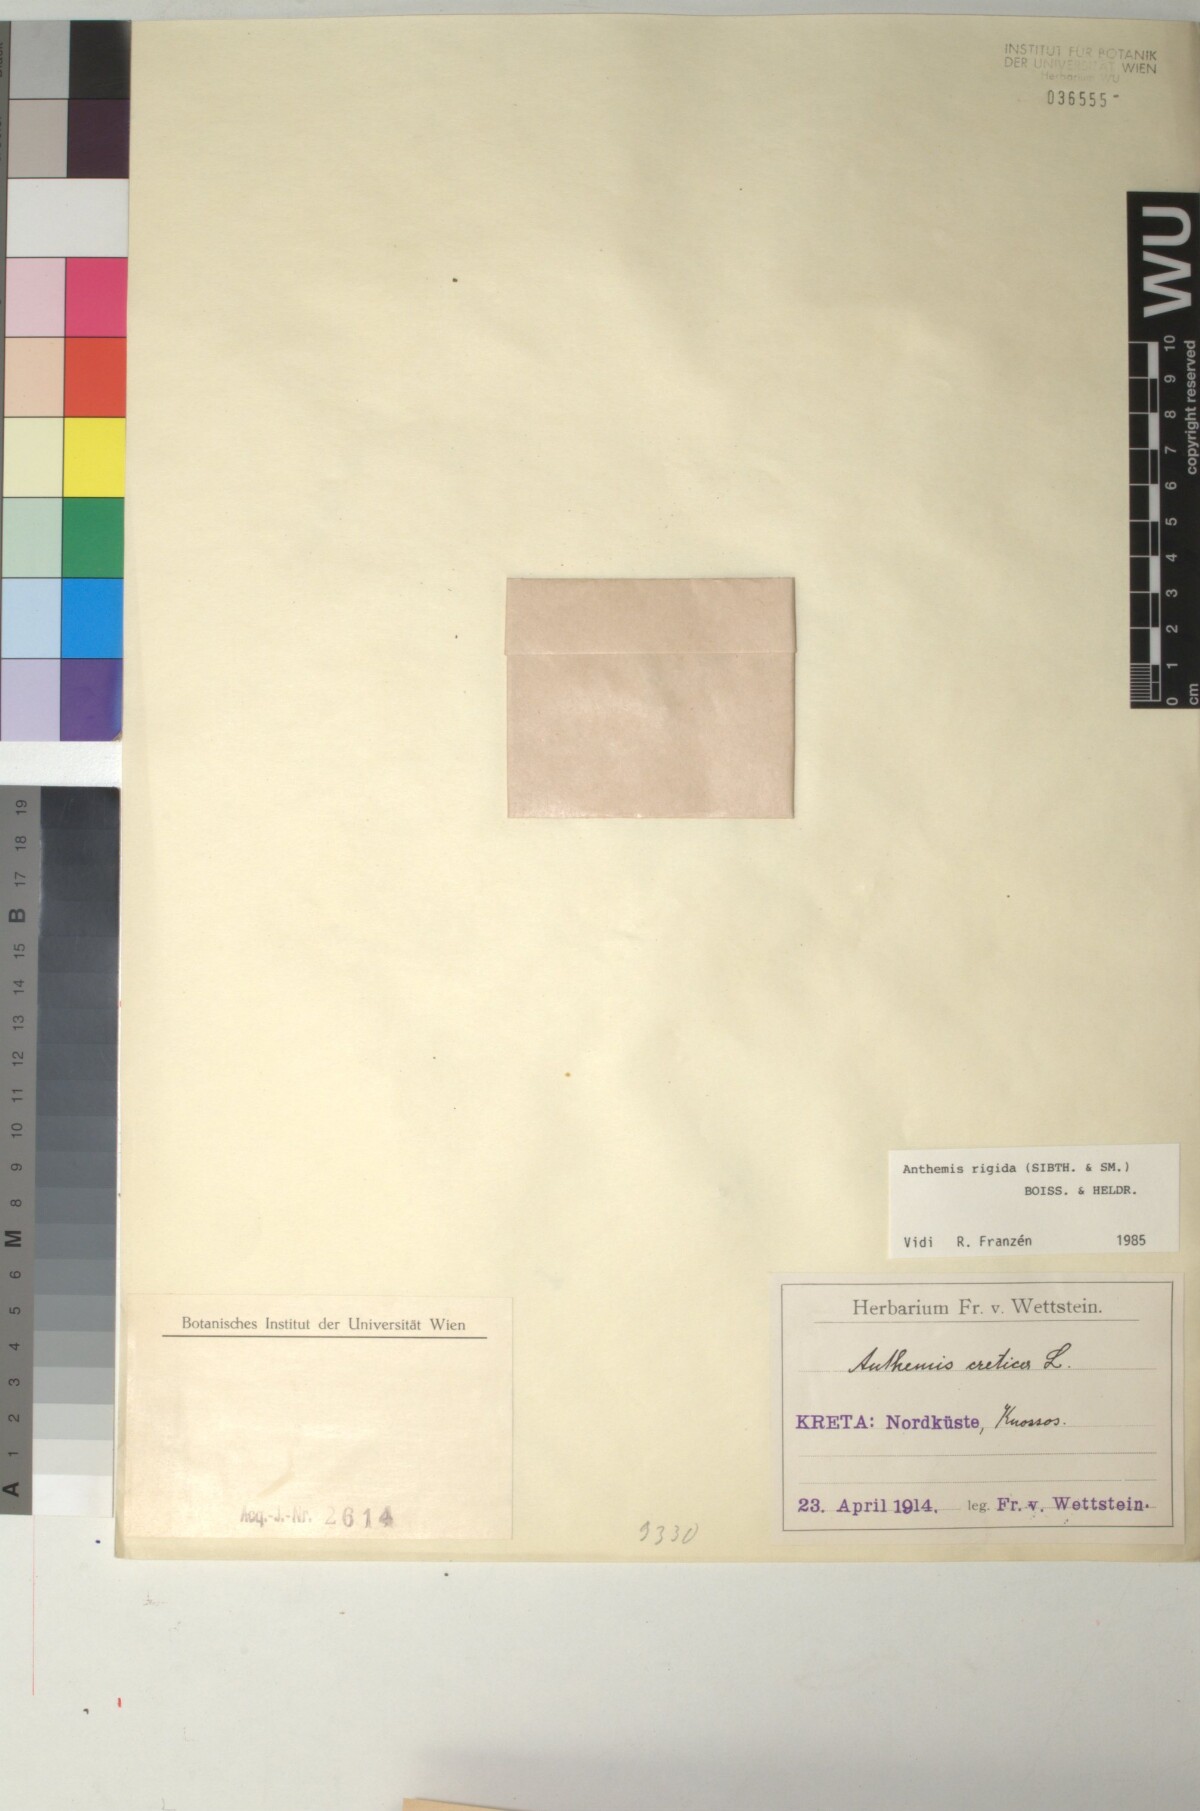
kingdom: Plantae
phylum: Tracheophyta
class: Magnoliopsida
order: Asterales
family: Asteraceae
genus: Anthemis
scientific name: Anthemis rigida
